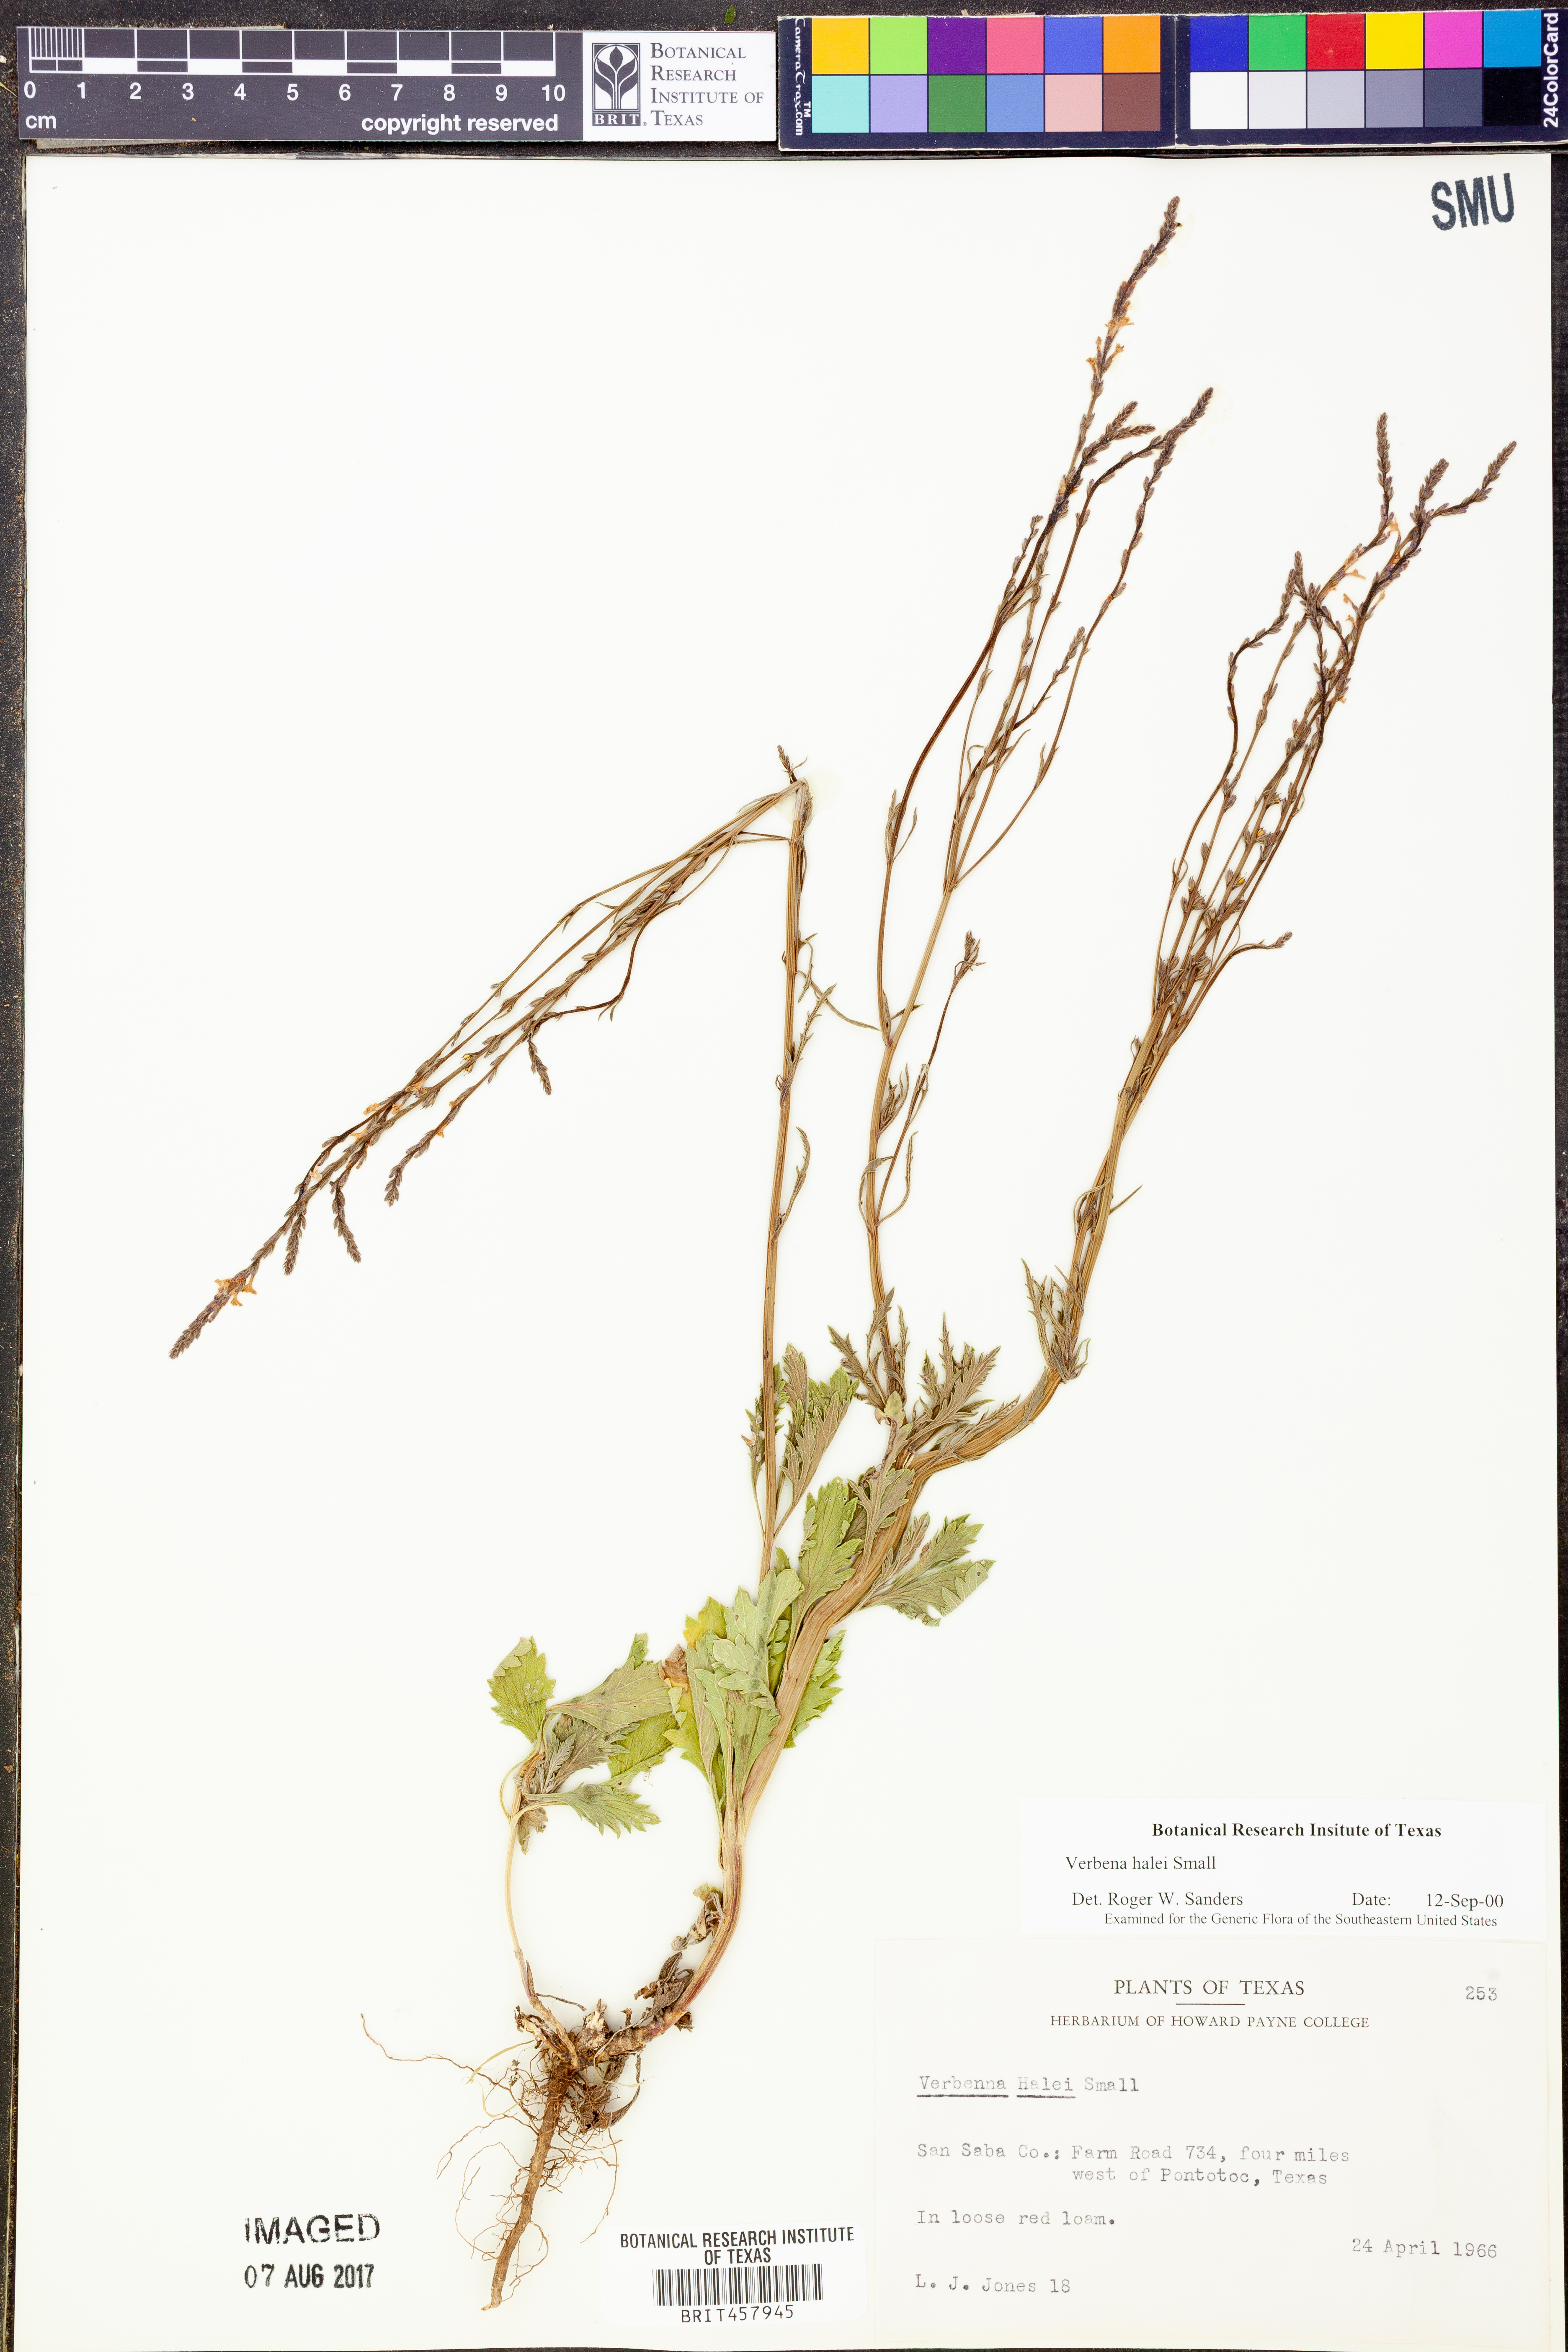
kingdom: Plantae
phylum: Tracheophyta
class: Magnoliopsida
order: Lamiales
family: Verbenaceae
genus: Verbena
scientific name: Verbena halei
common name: Texas vervain
